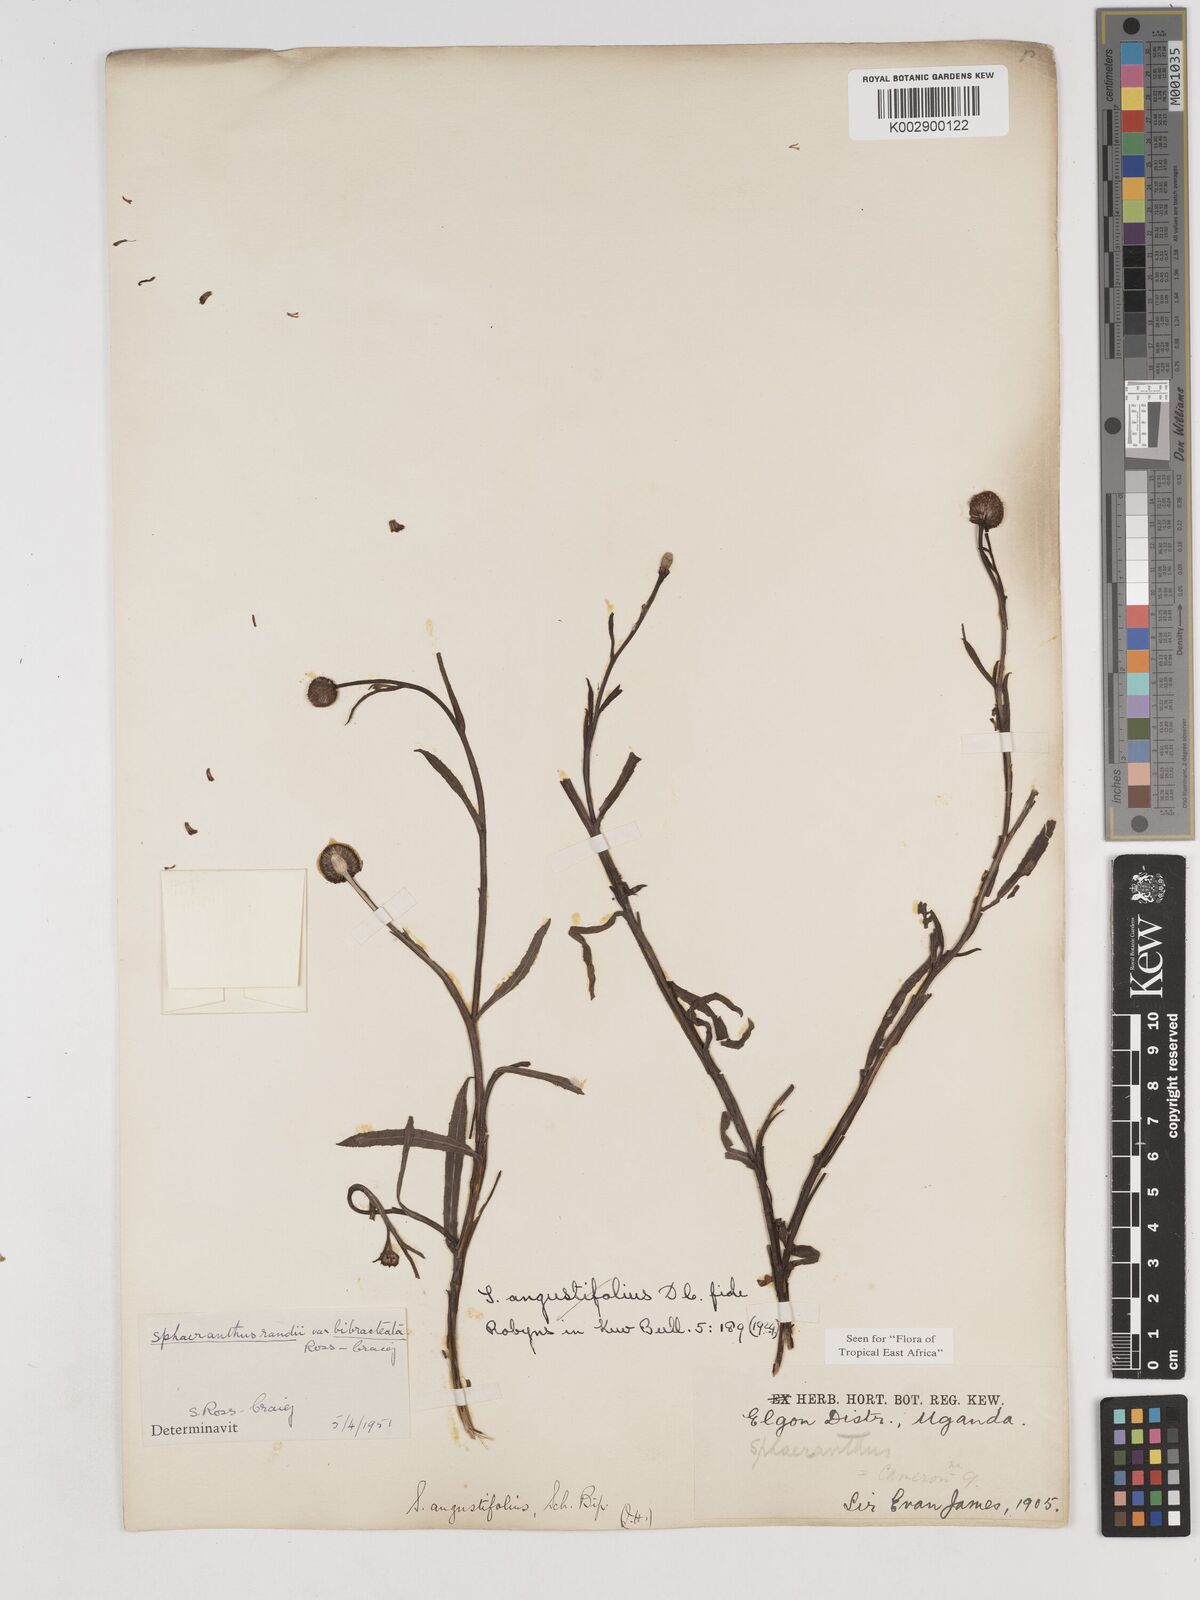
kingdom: Plantae
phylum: Tracheophyta
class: Magnoliopsida
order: Asterales
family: Asteraceae
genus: Sphaeranthus
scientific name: Sphaeranthus randii
